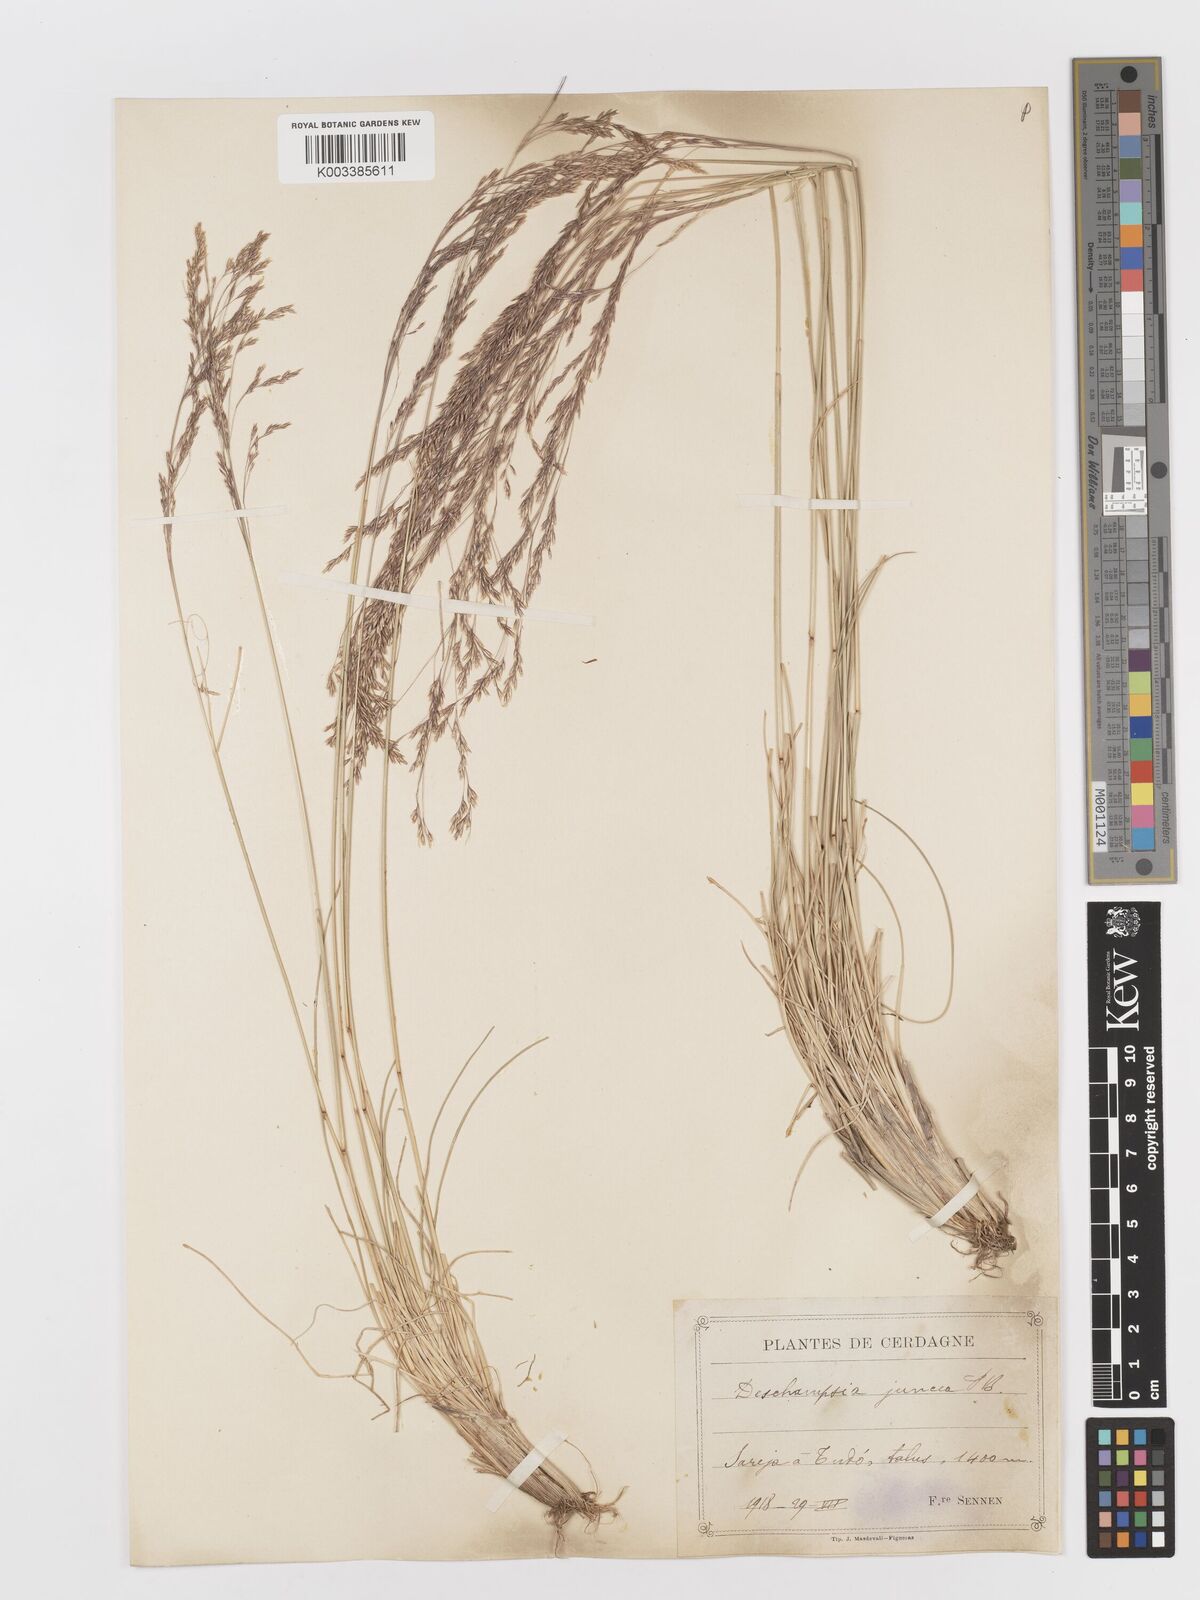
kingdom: Plantae
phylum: Tracheophyta
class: Liliopsida
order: Poales
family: Poaceae
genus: Deschampsia
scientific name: Deschampsia media
